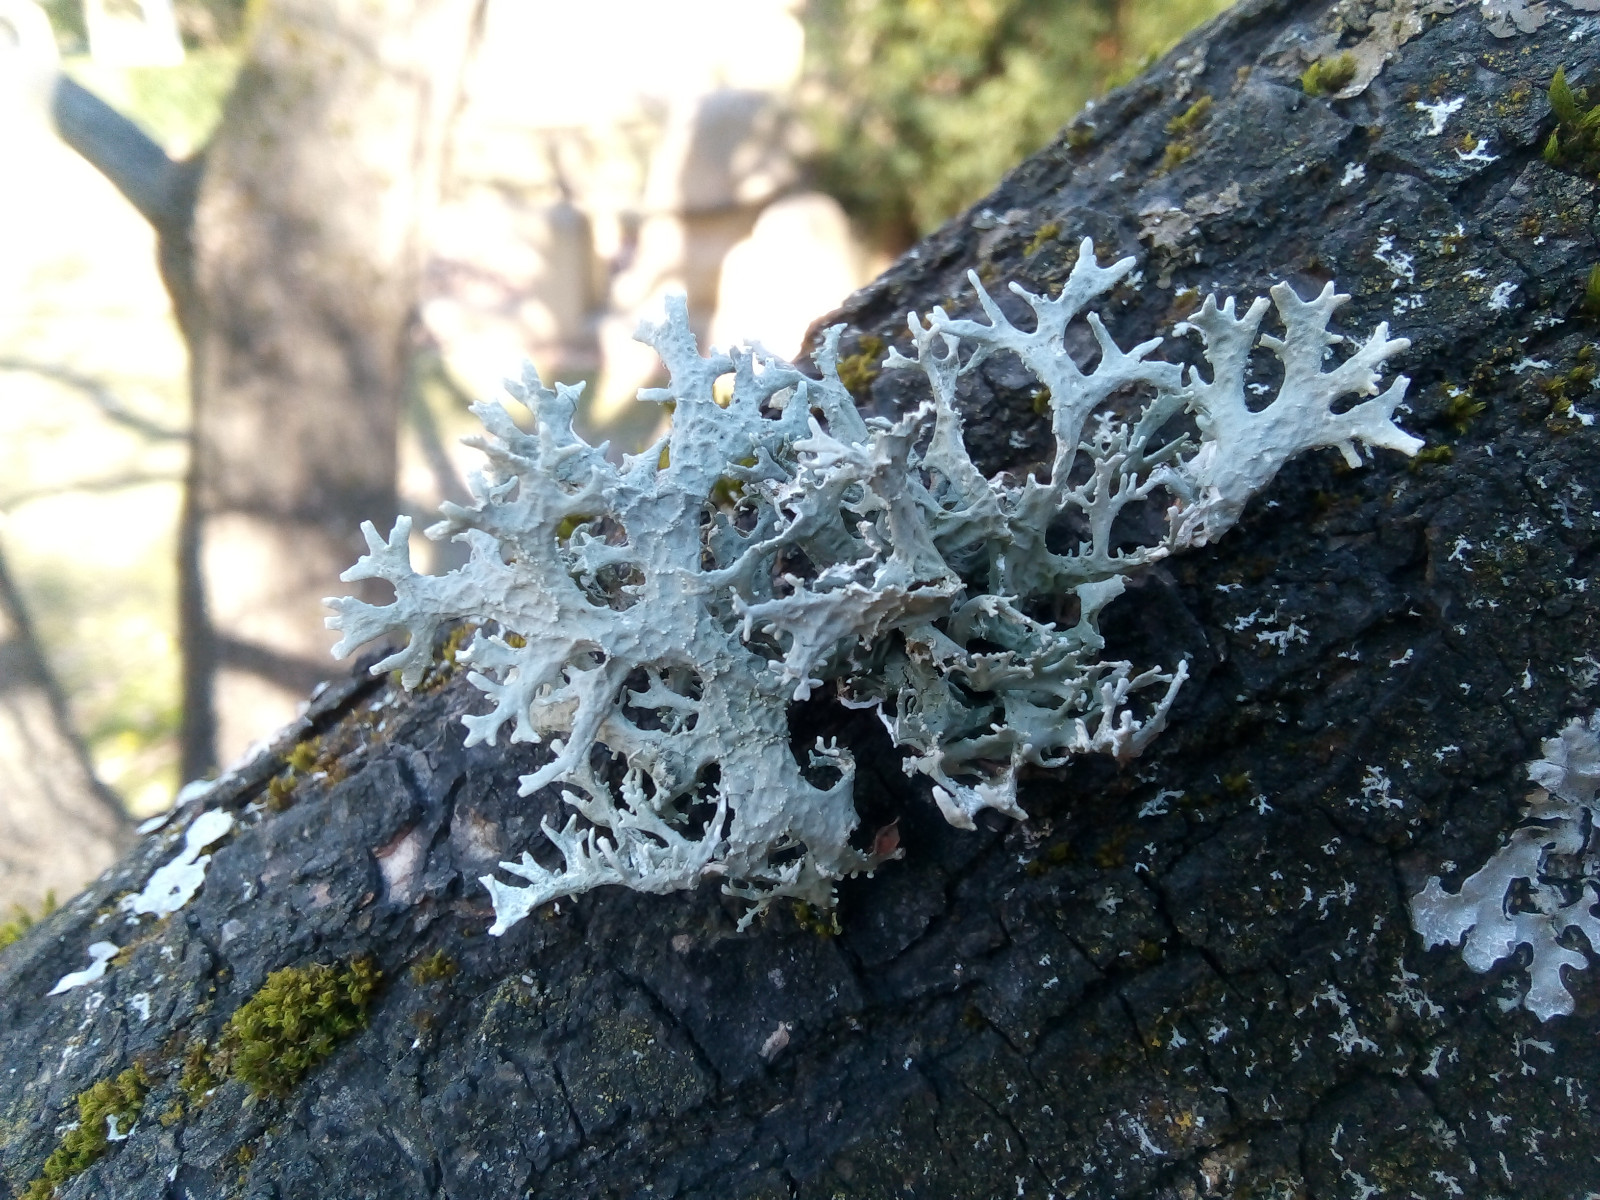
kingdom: Fungi
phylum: Ascomycota
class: Lecanoromycetes
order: Lecanorales
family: Parmeliaceae
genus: Evernia
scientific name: Evernia prunastri
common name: almindelig slåenlav
